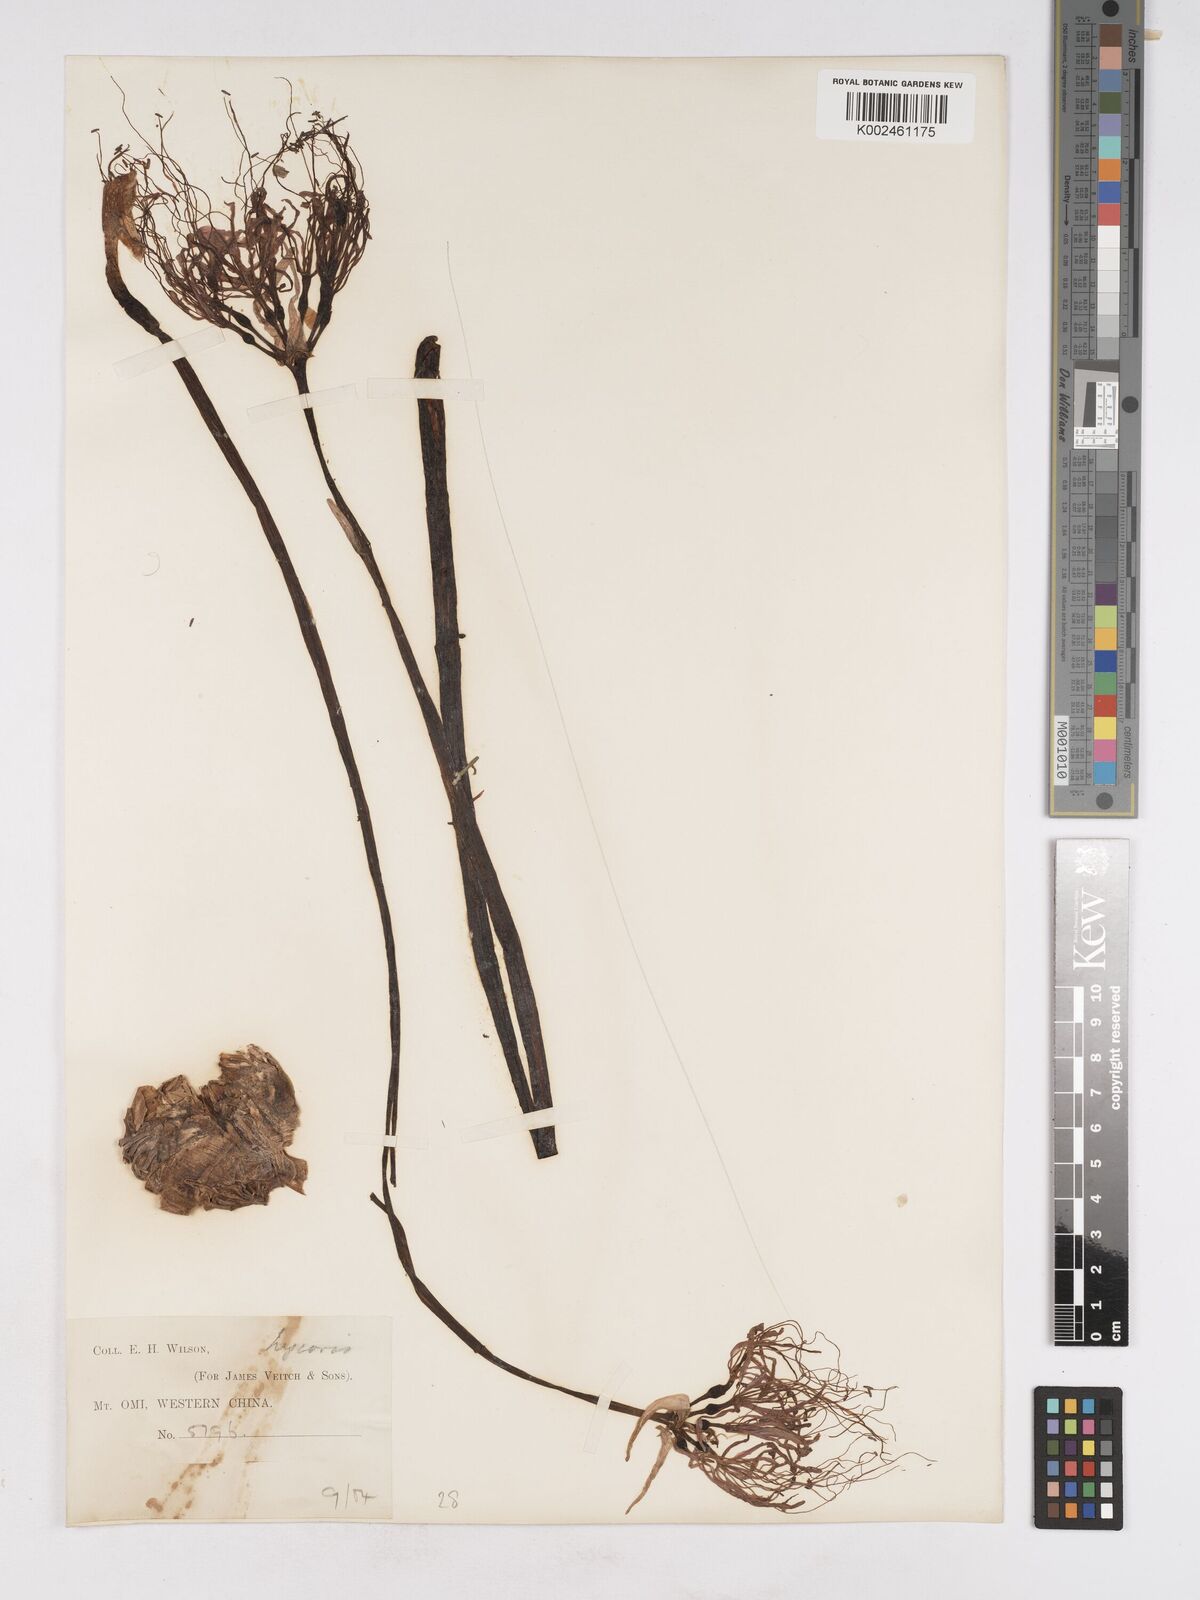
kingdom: Plantae
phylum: Tracheophyta
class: Liliopsida
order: Asparagales
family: Amaryllidaceae
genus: Lycoris
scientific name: Lycoris radiata
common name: Red spider lily
